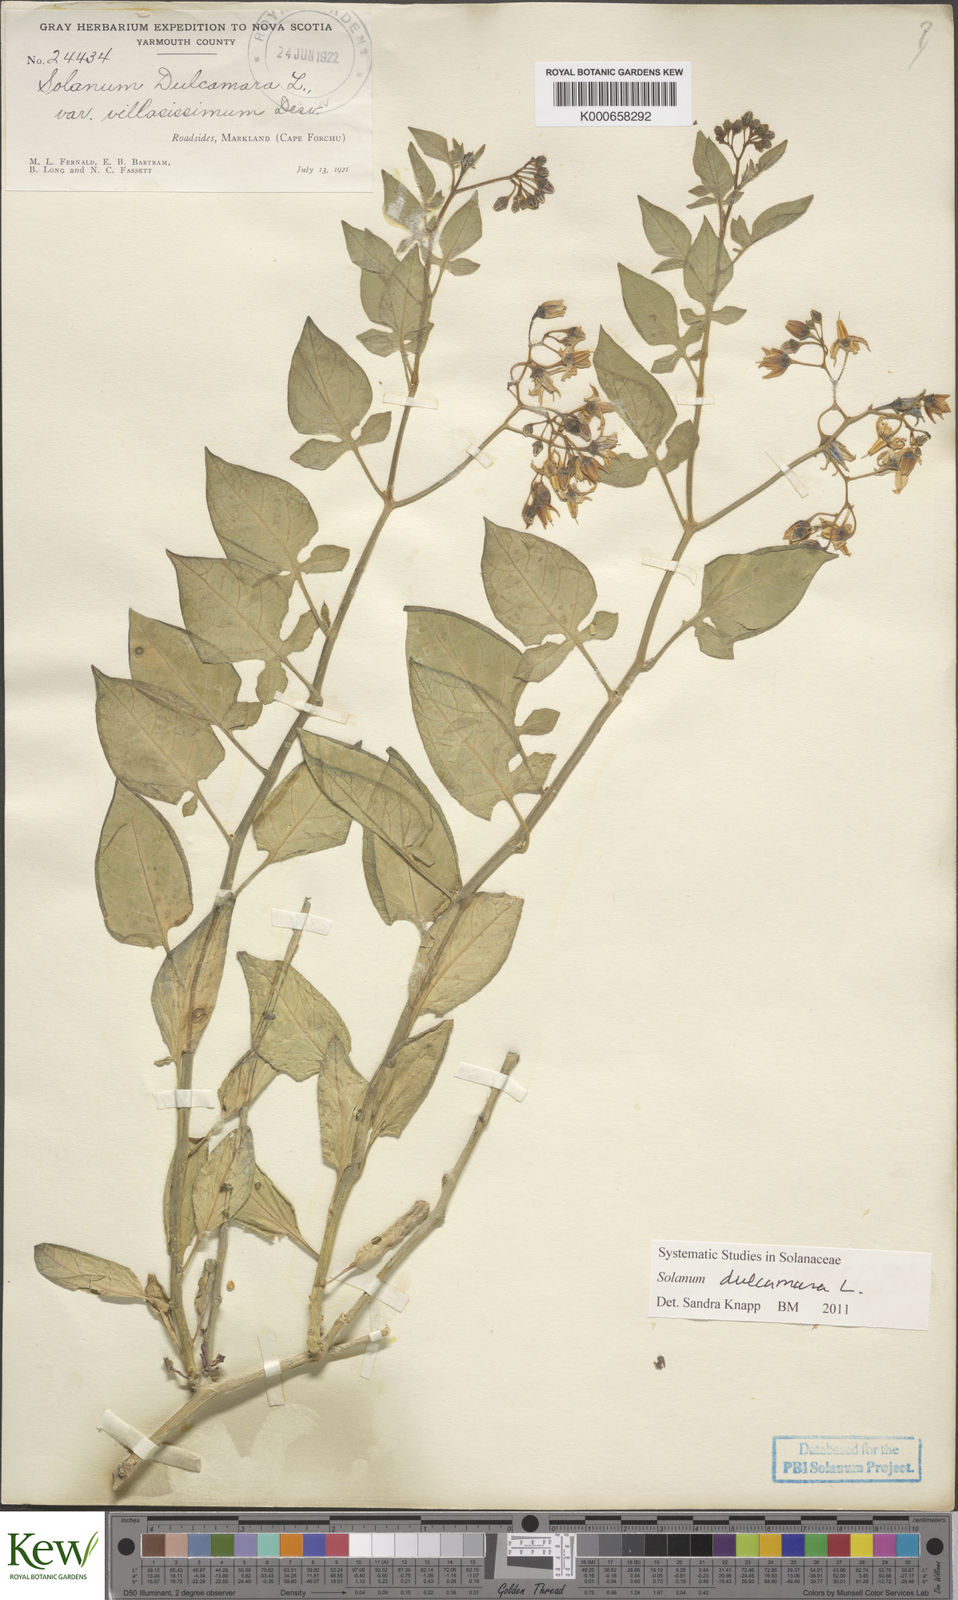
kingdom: Plantae
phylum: Tracheophyta
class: Magnoliopsida
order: Solanales
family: Solanaceae
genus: Solanum
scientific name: Solanum dulcamara
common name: Climbing nightshade
